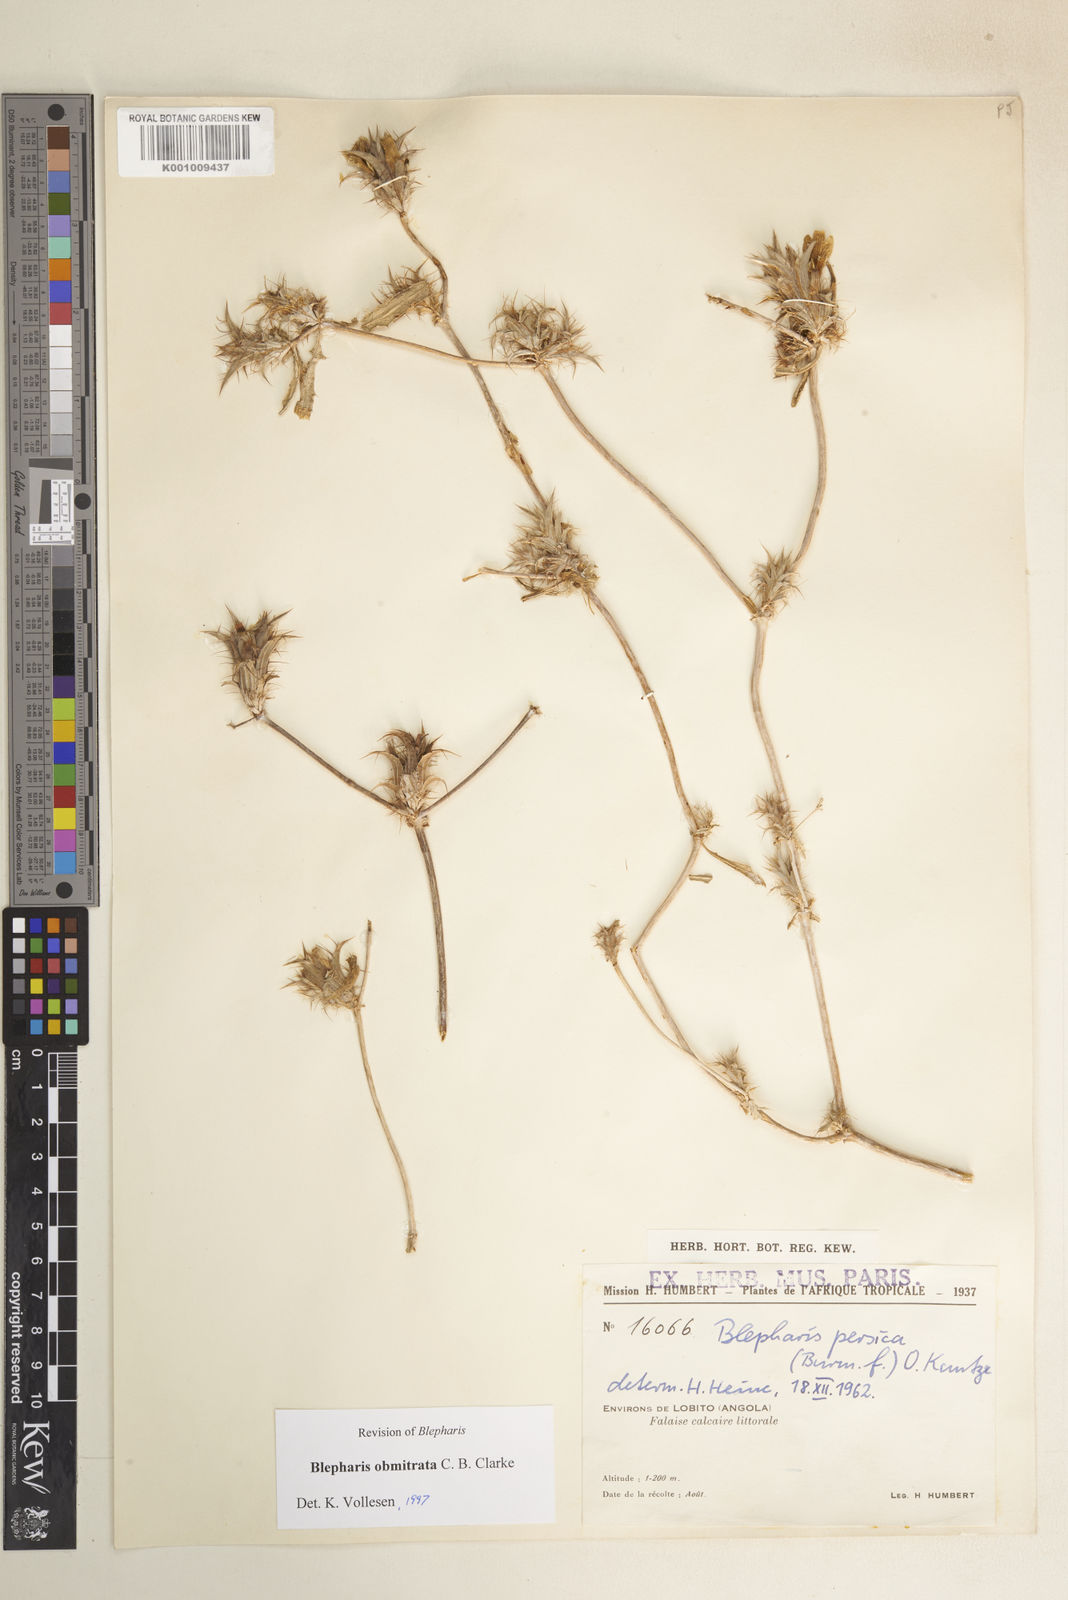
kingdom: Plantae
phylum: Tracheophyta
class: Magnoliopsida
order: Lamiales
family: Acanthaceae
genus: Blepharis
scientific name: Blepharis obmitrata
